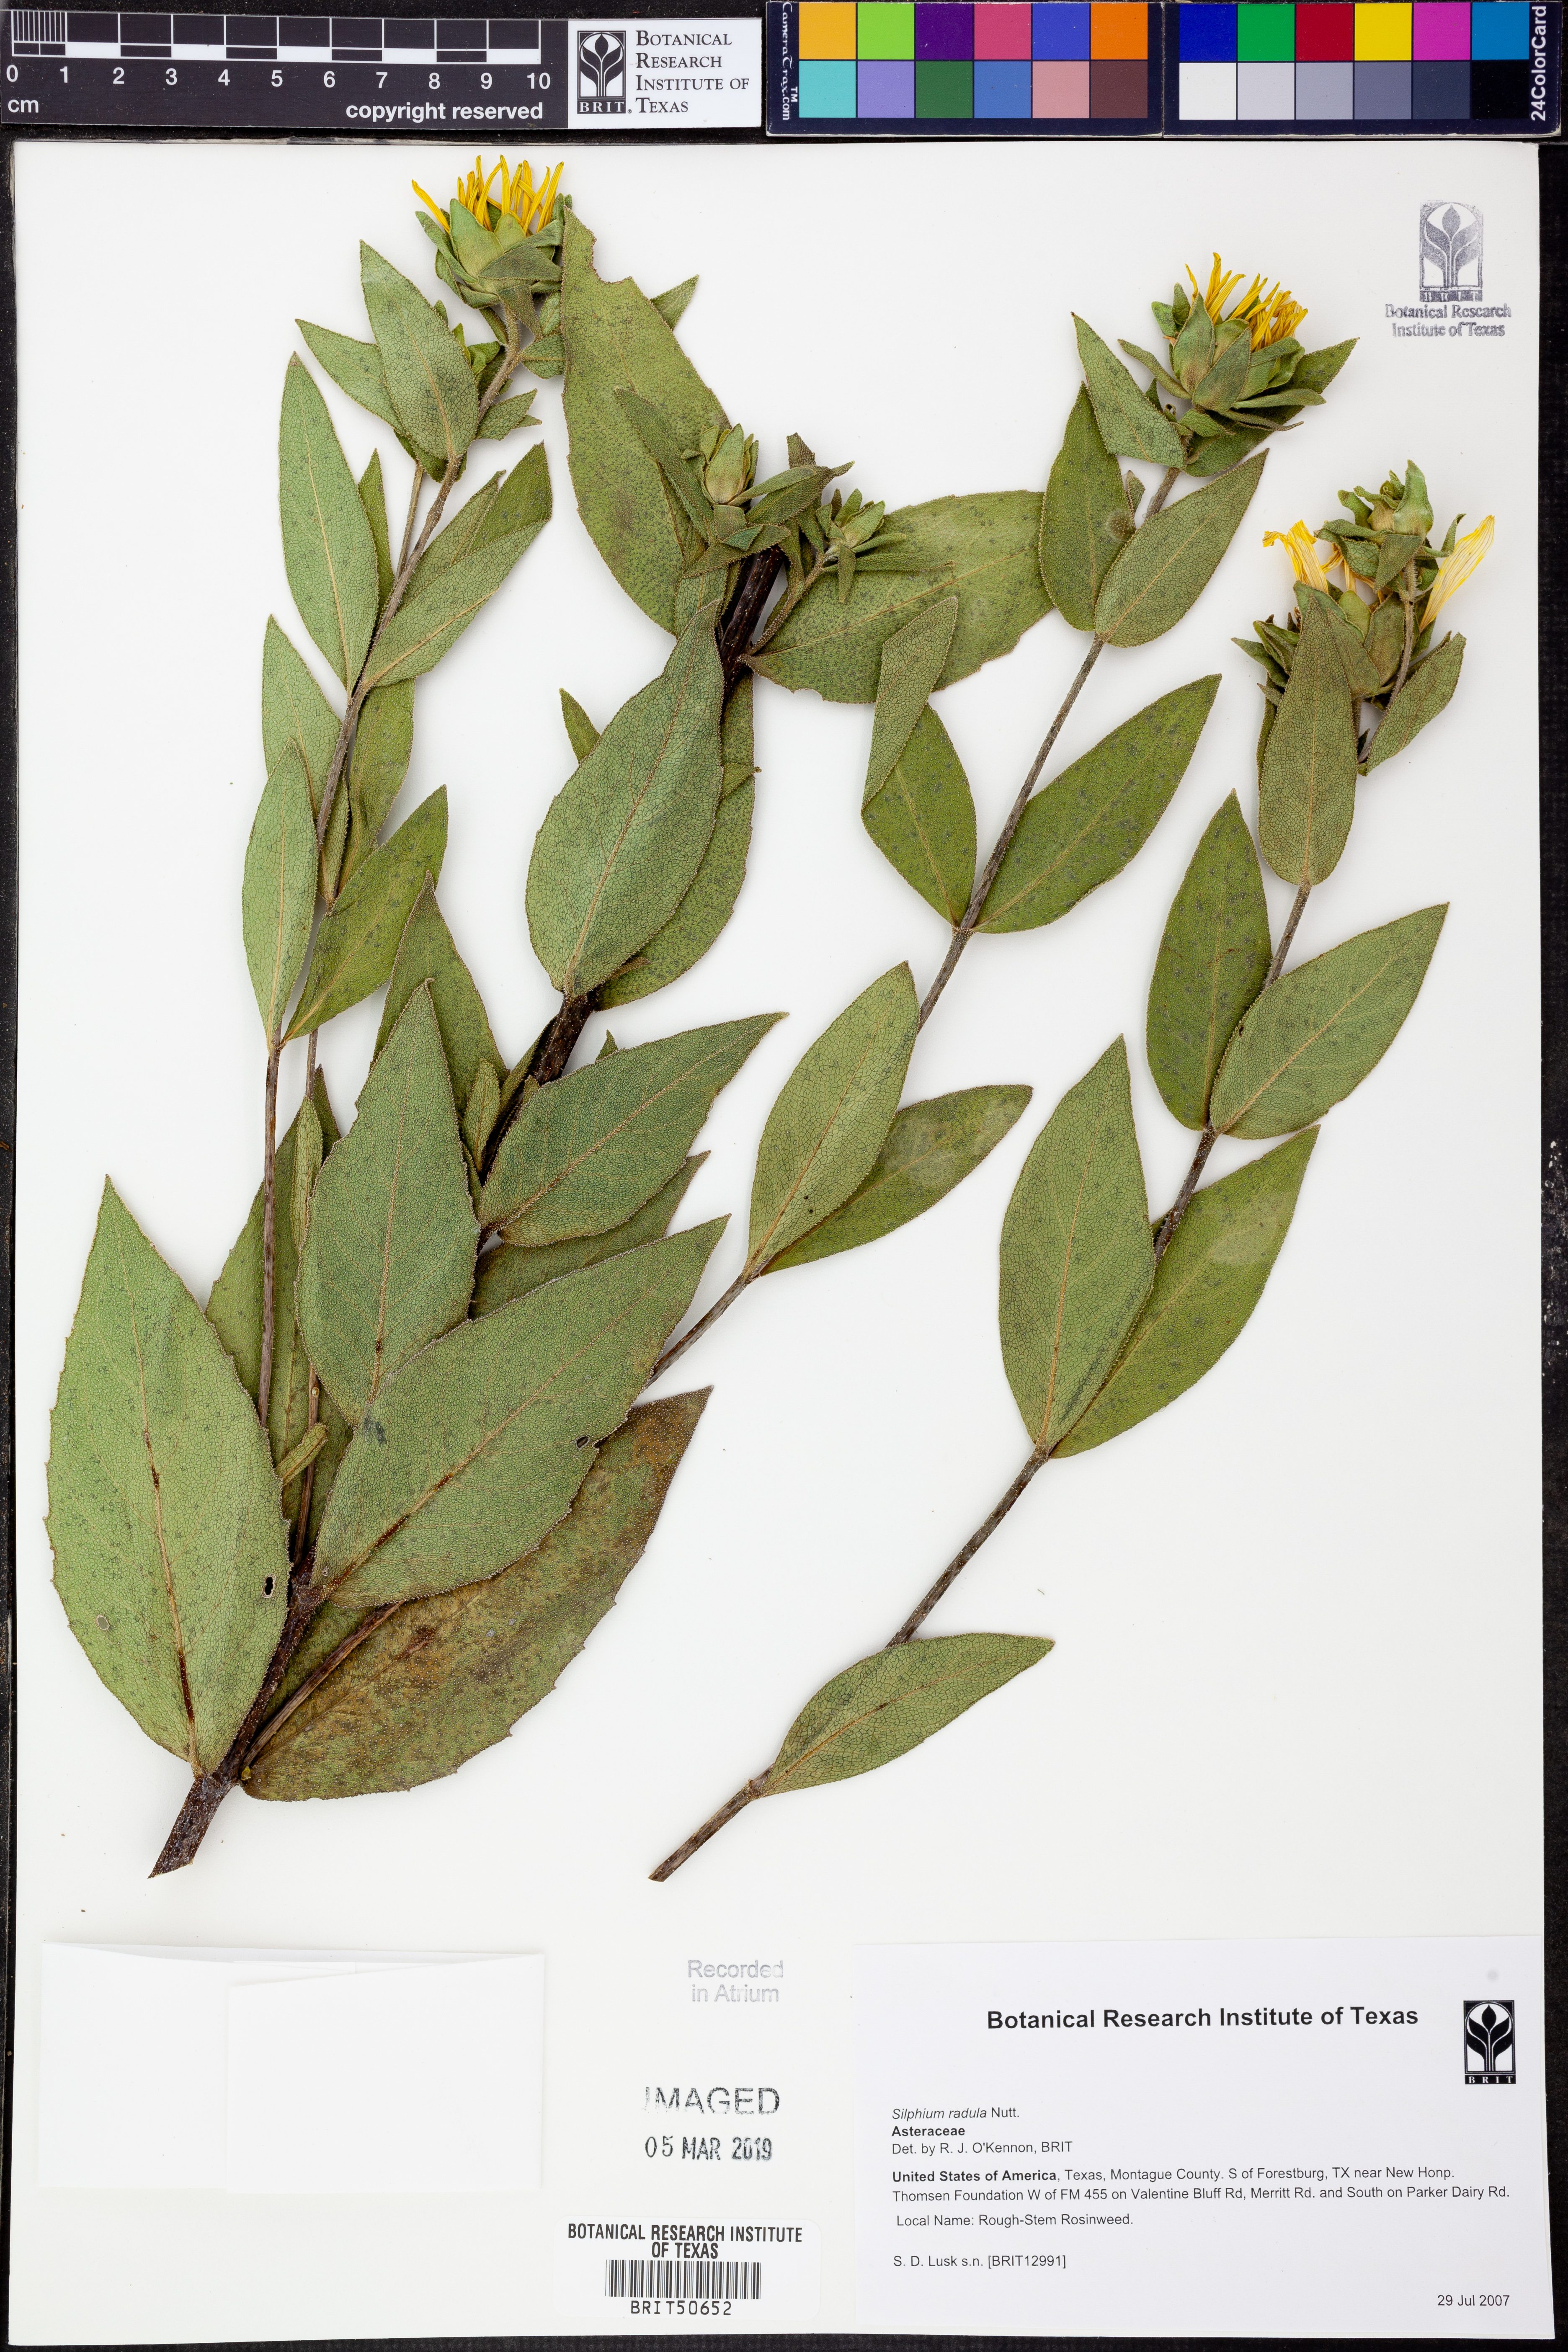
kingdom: Plantae
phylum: Tracheophyta
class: Magnoliopsida
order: Asterales
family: Asteraceae
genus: Silphium
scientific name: Silphium radula
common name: Roughleaf rosinweed
